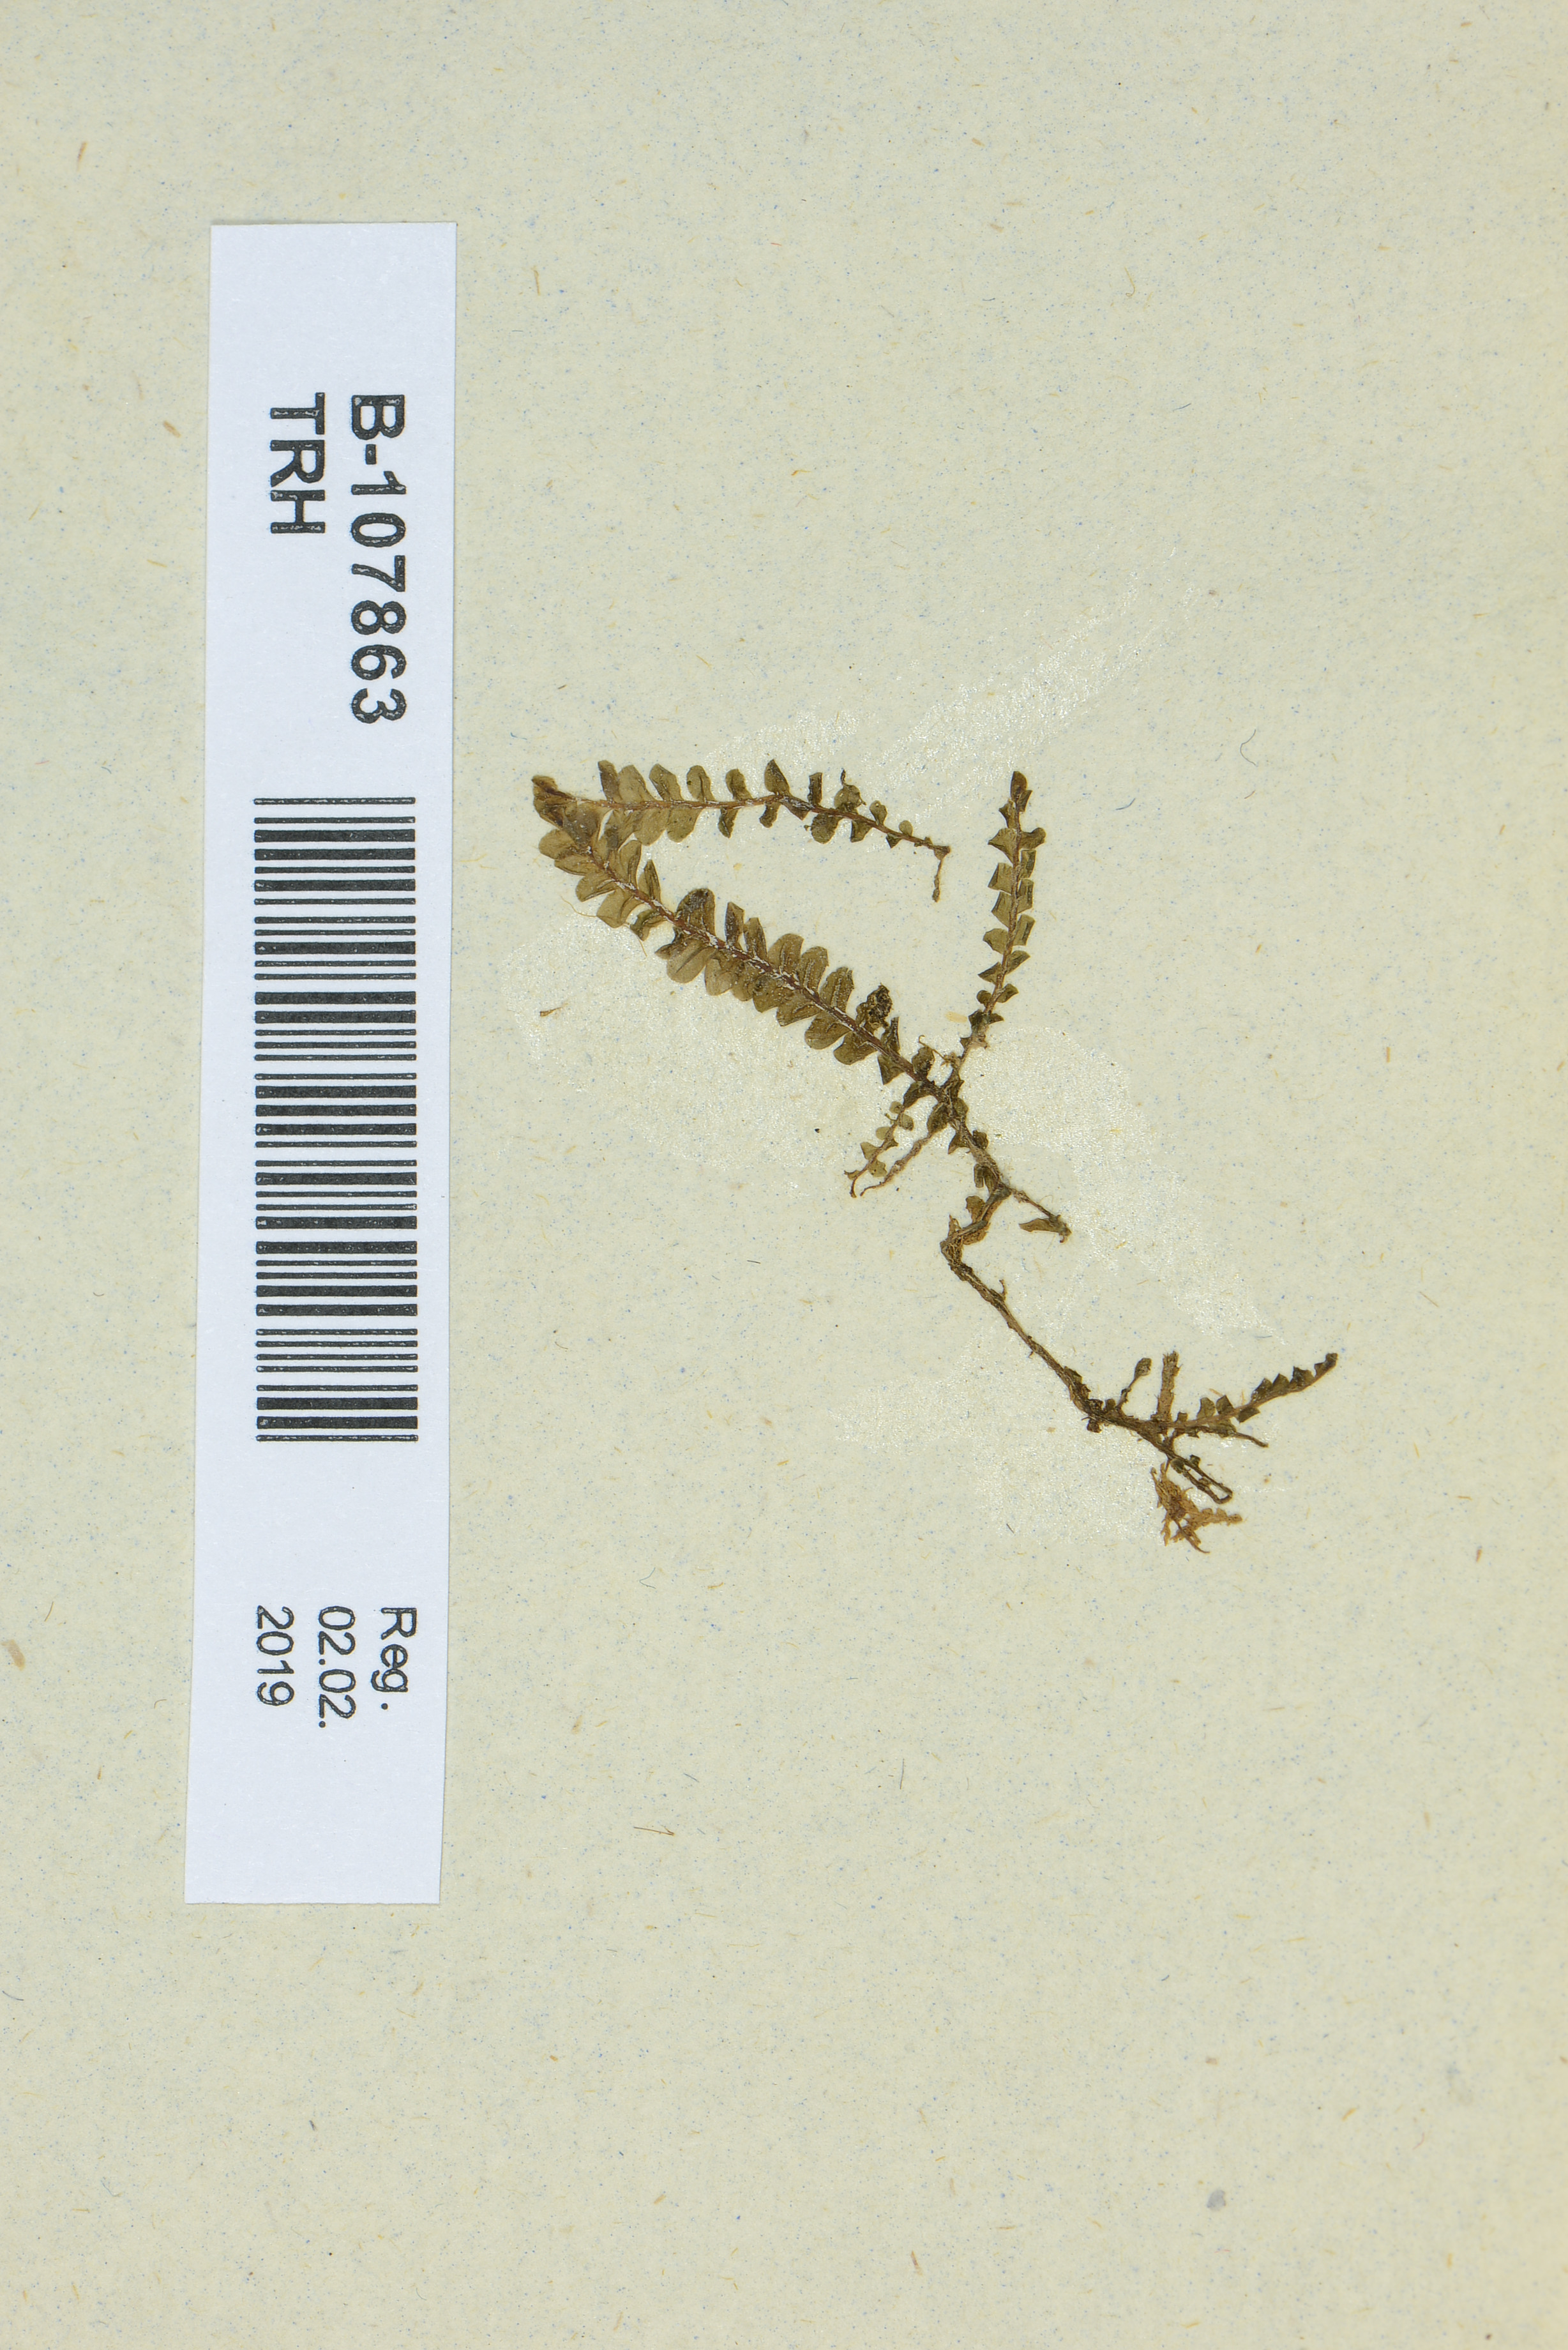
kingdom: Plantae
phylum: Marchantiophyta
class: Jungermanniopsida
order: Jungermanniales
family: Plagiochilaceae
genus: Plagiochila
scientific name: Plagiochila asplenioides
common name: Greater featherwort
